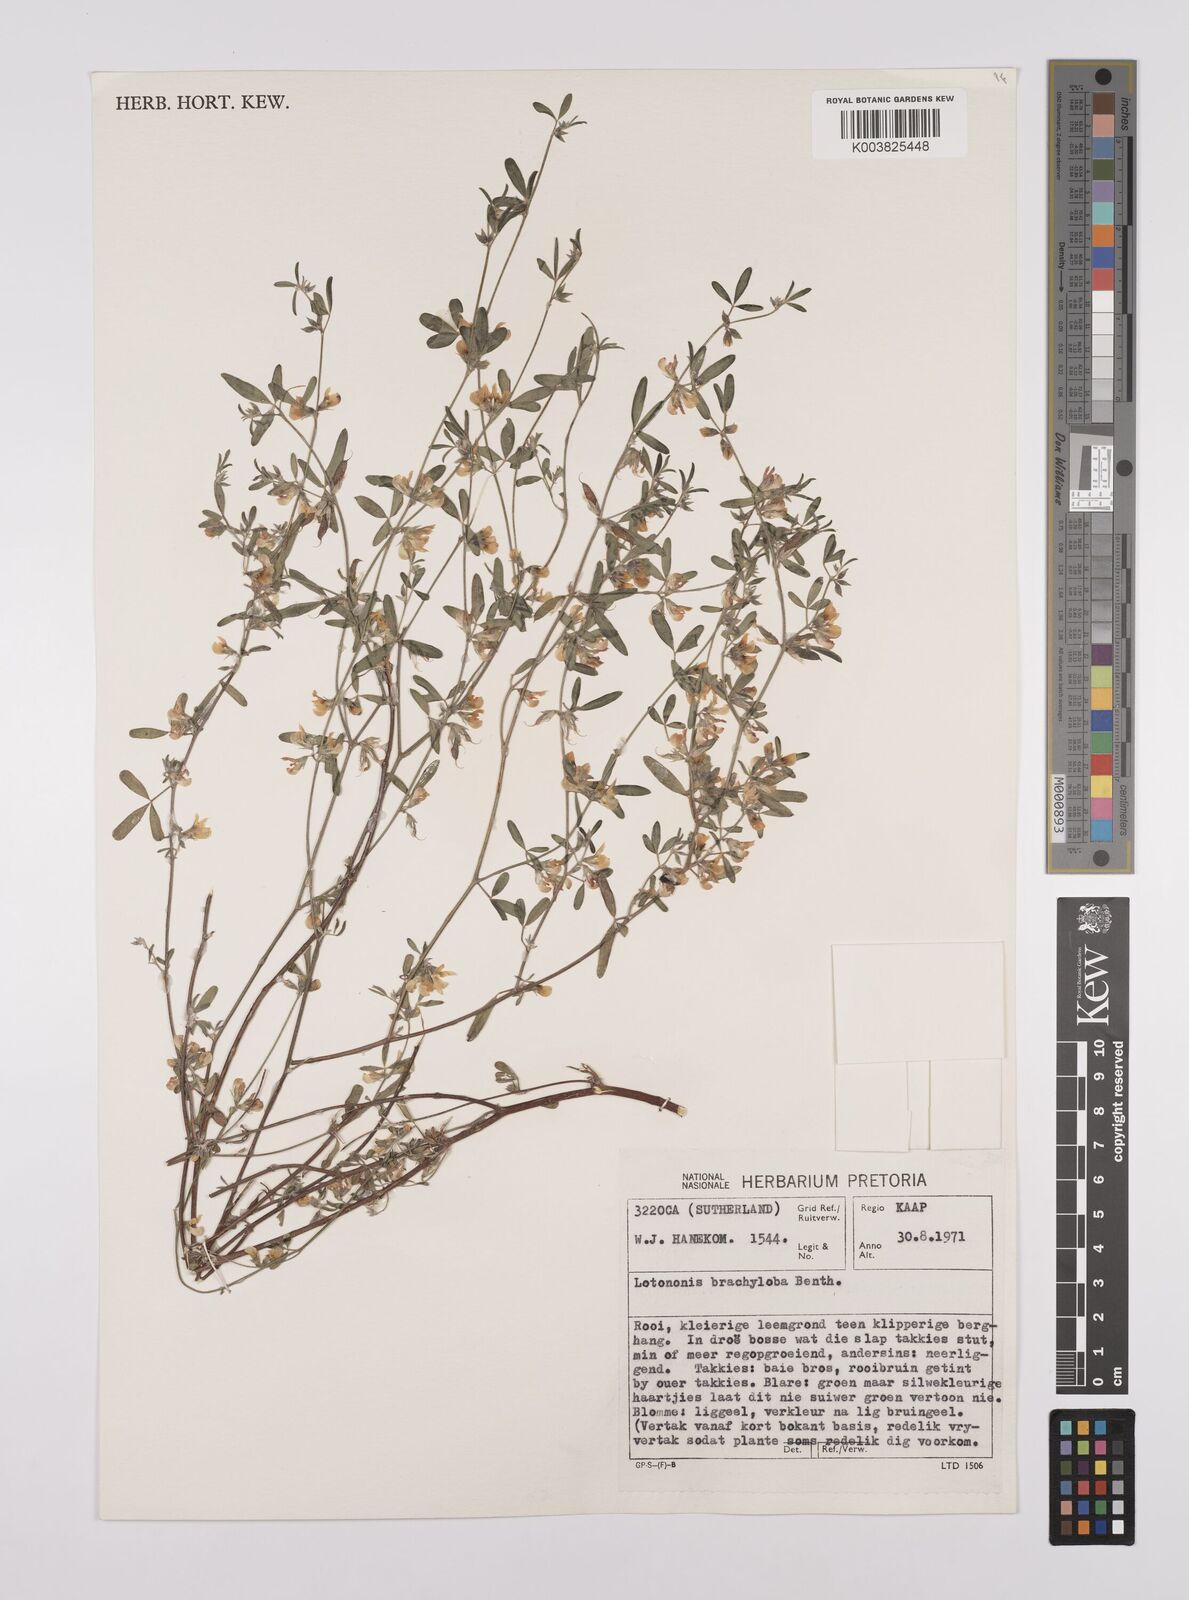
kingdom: Plantae
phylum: Tracheophyta
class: Magnoliopsida
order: Fabales
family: Fabaceae
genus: Lotononis
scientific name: Lotononis parviflora
